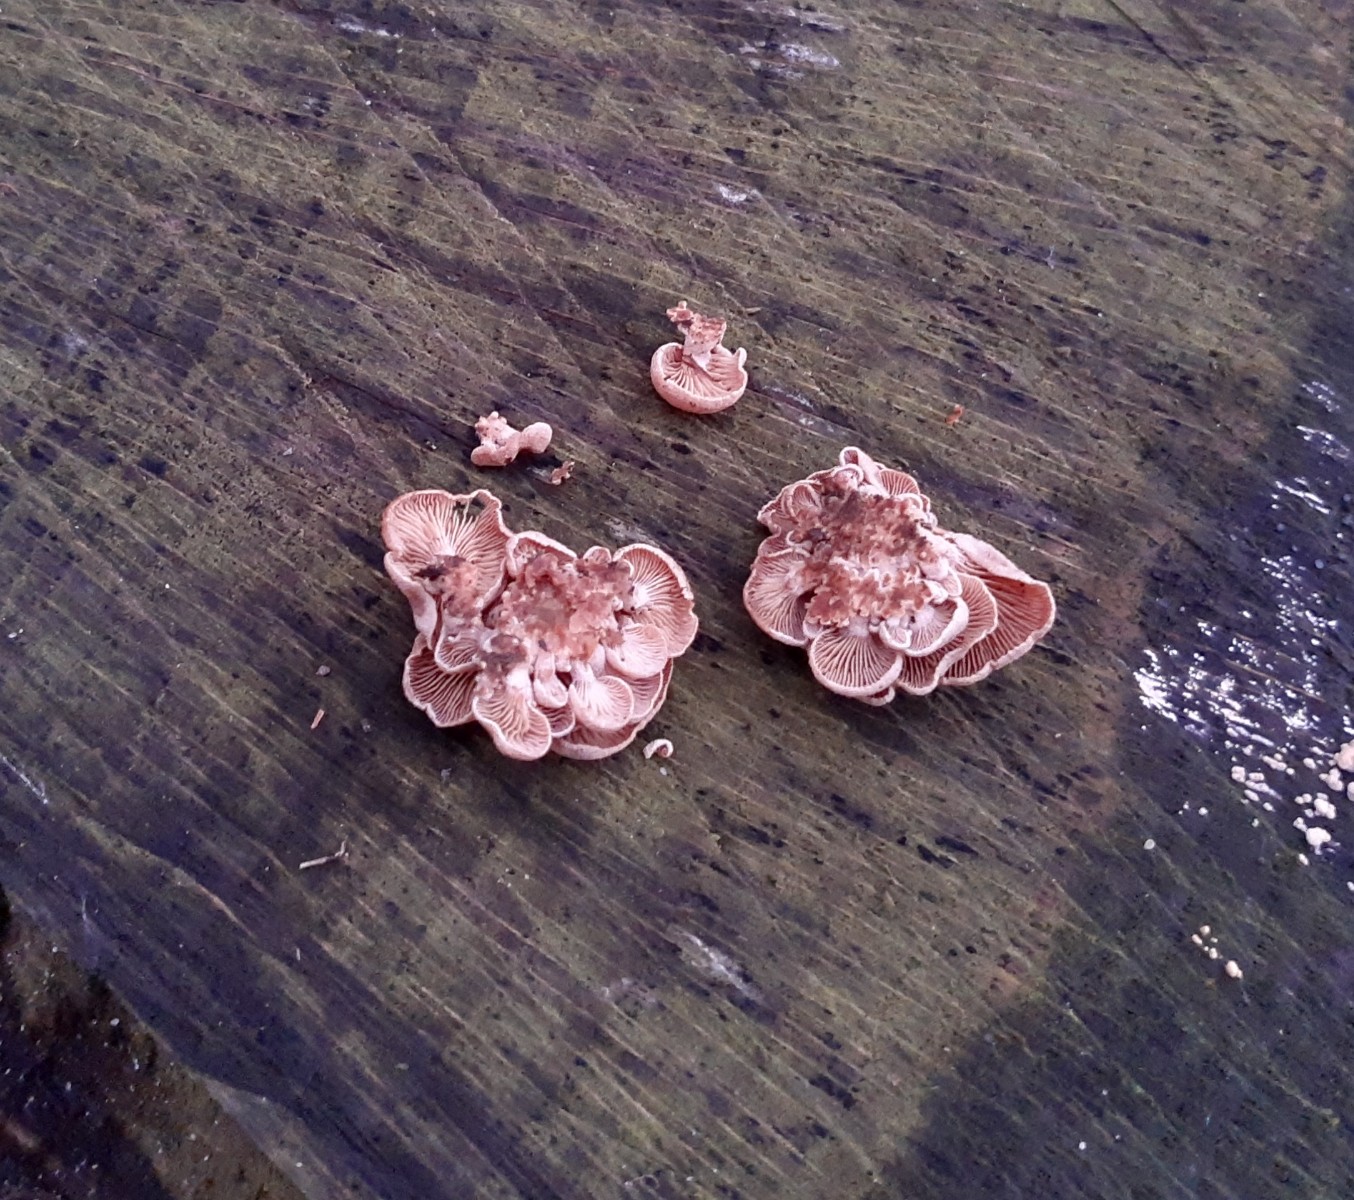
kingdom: Fungi
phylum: Basidiomycota
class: Agaricomycetes
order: Agaricales
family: Mycenaceae
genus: Panellus
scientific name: Panellus stipticus
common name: kliddet epaulethat
